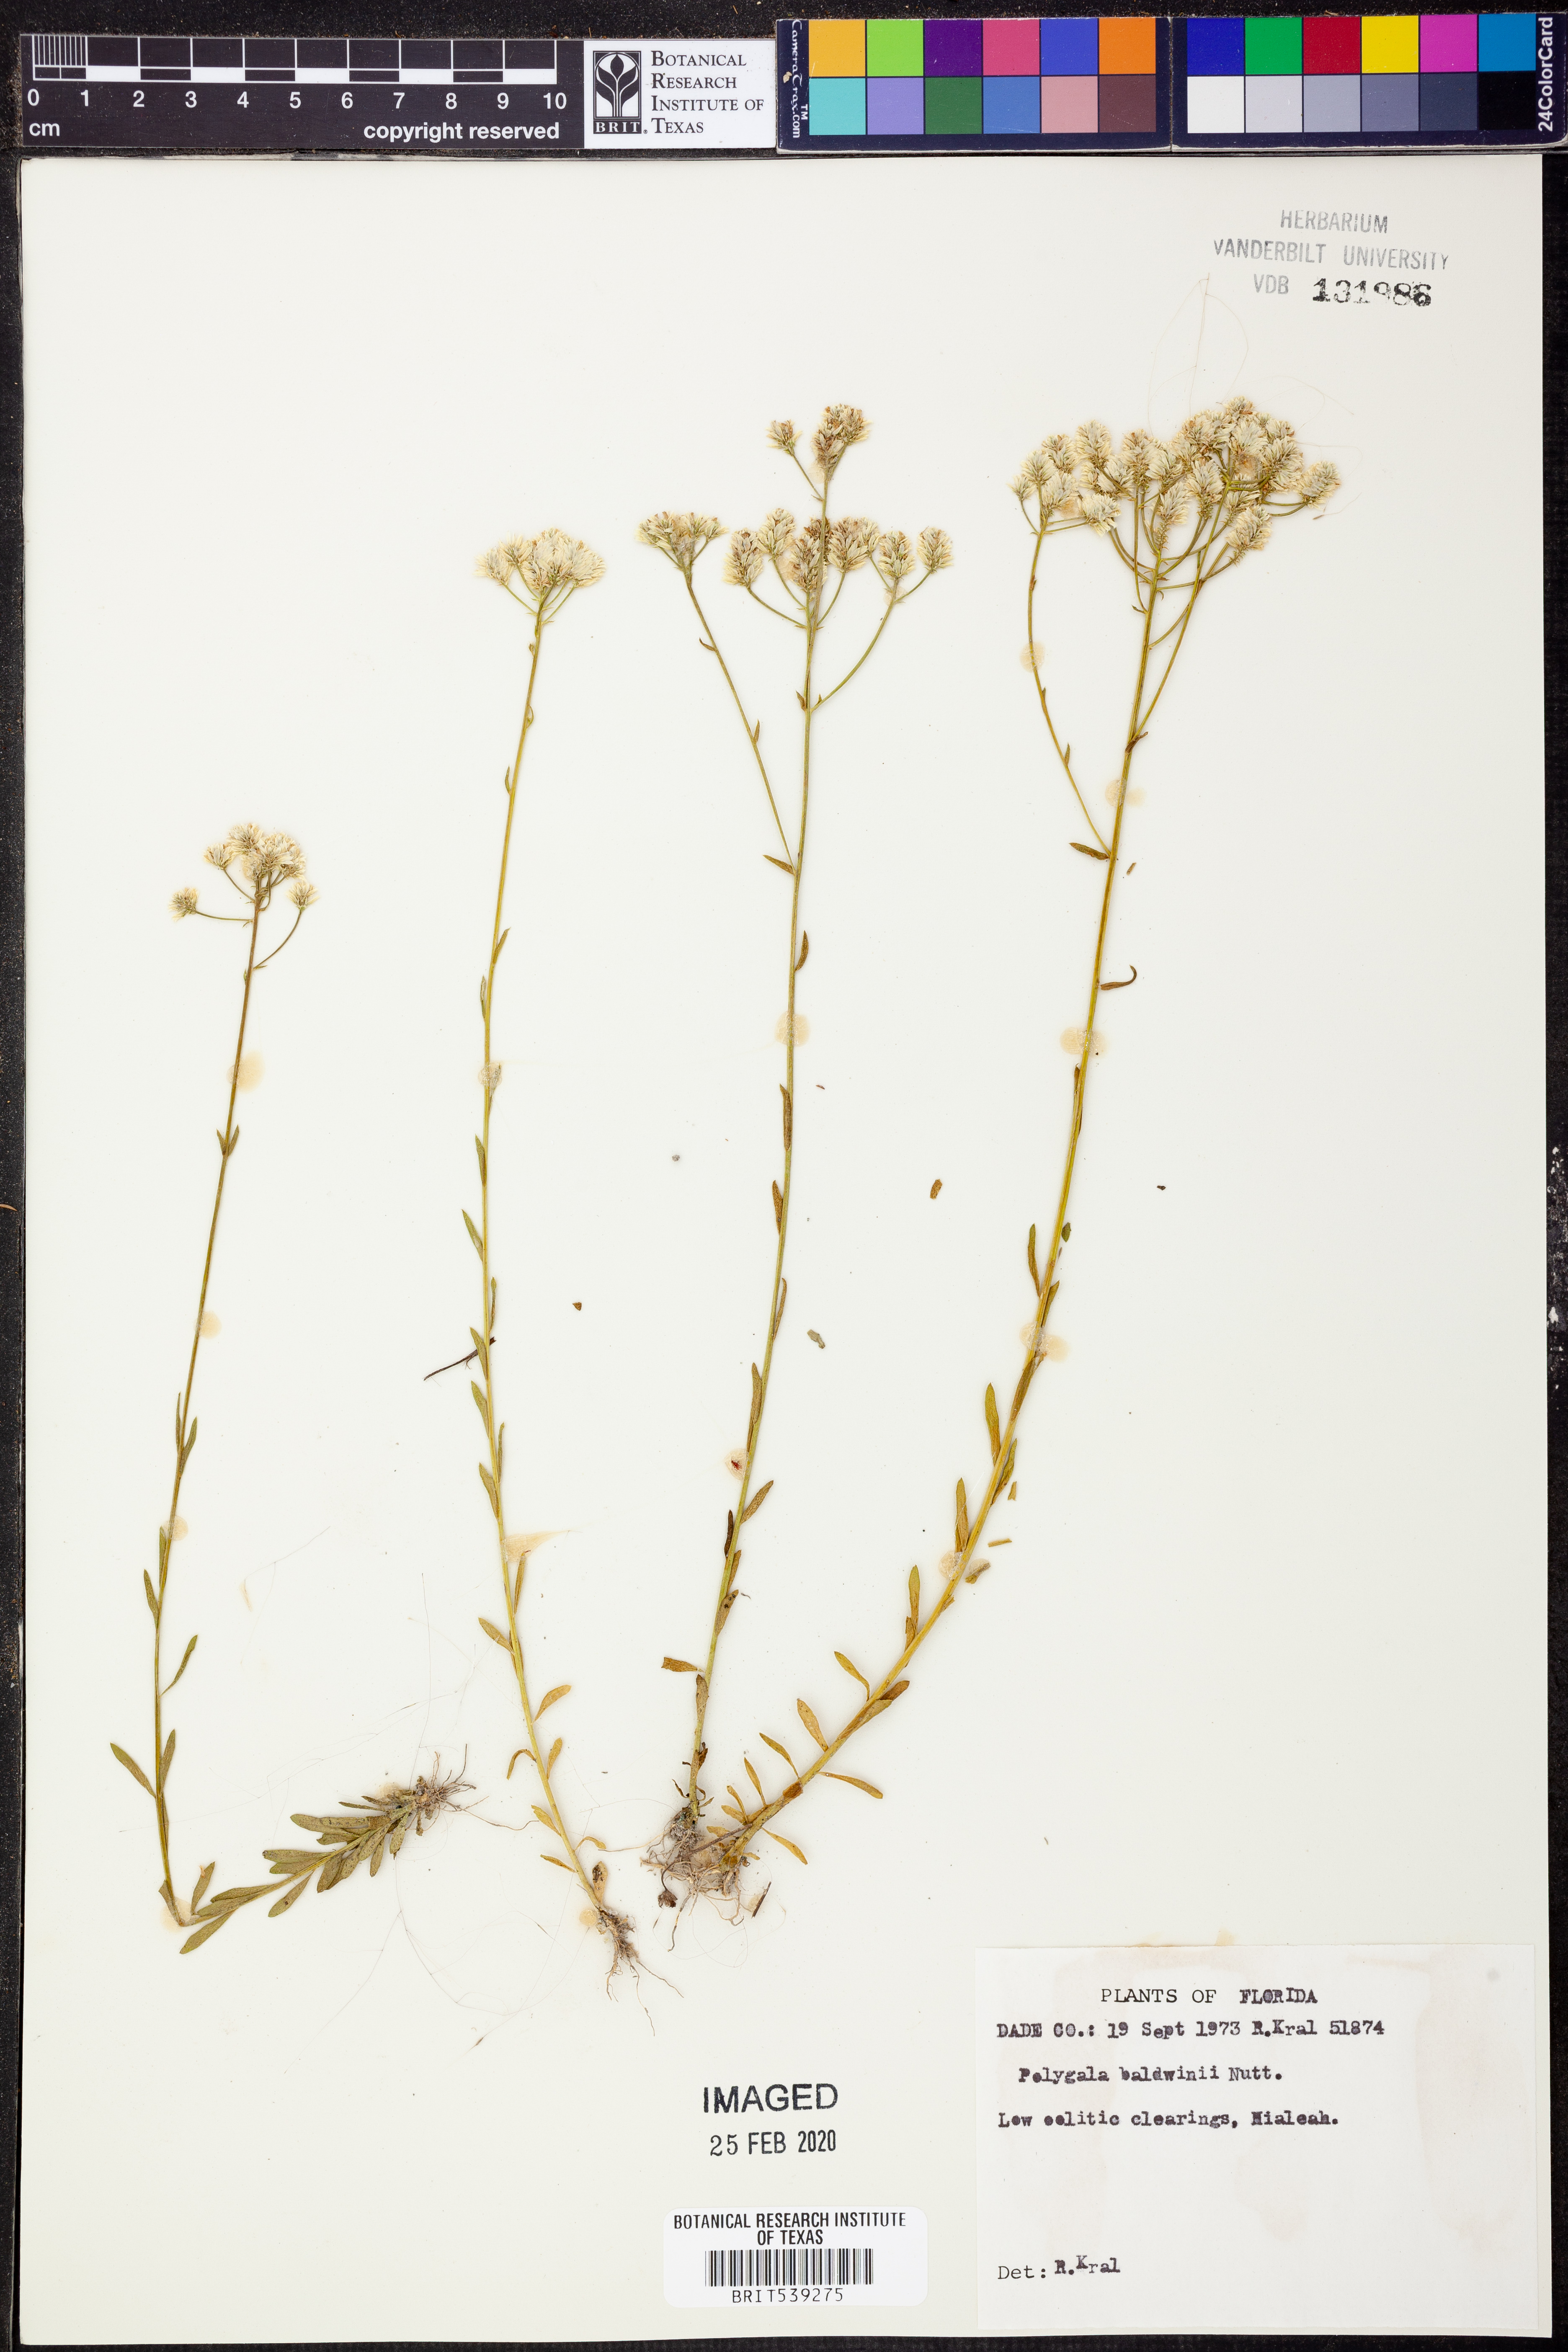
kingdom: Plantae
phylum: Tracheophyta
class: Magnoliopsida
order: Fabales
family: Polygalaceae
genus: Polygala
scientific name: Polygala baldwinii
